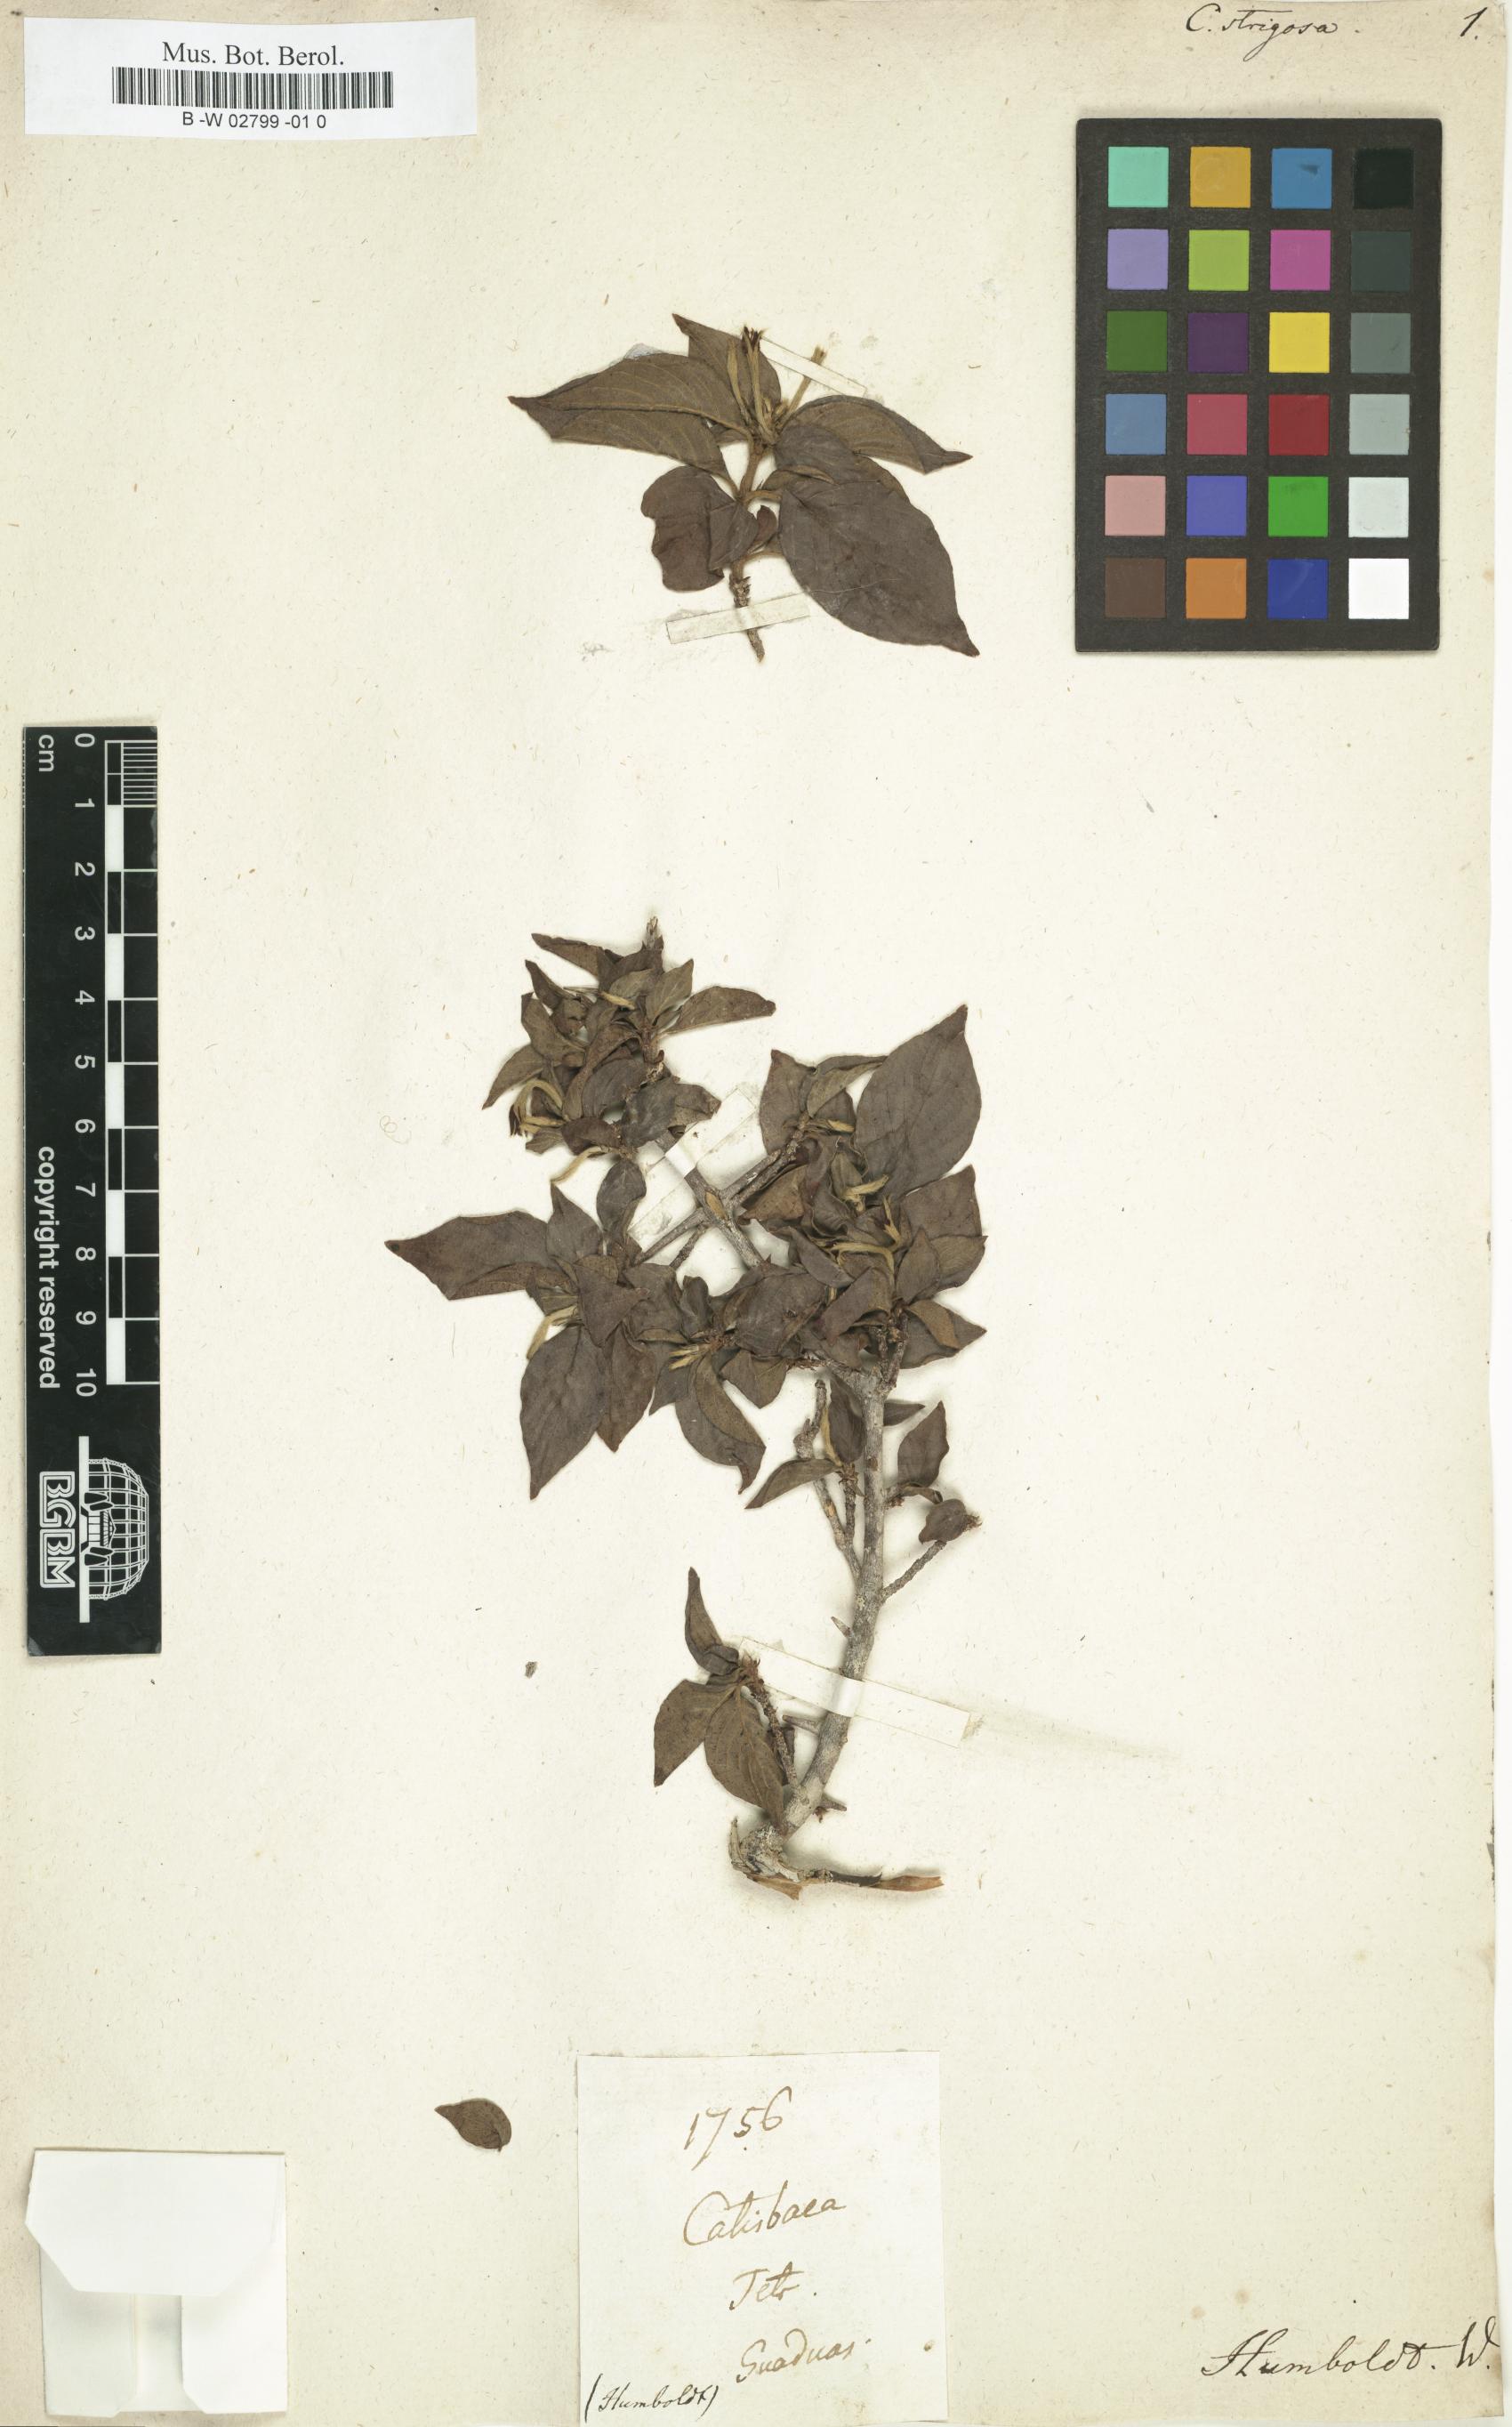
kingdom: Plantae
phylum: Tracheophyta
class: Magnoliopsida
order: Gentianales
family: Rubiaceae
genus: Randia
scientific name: Randia tetrandra
